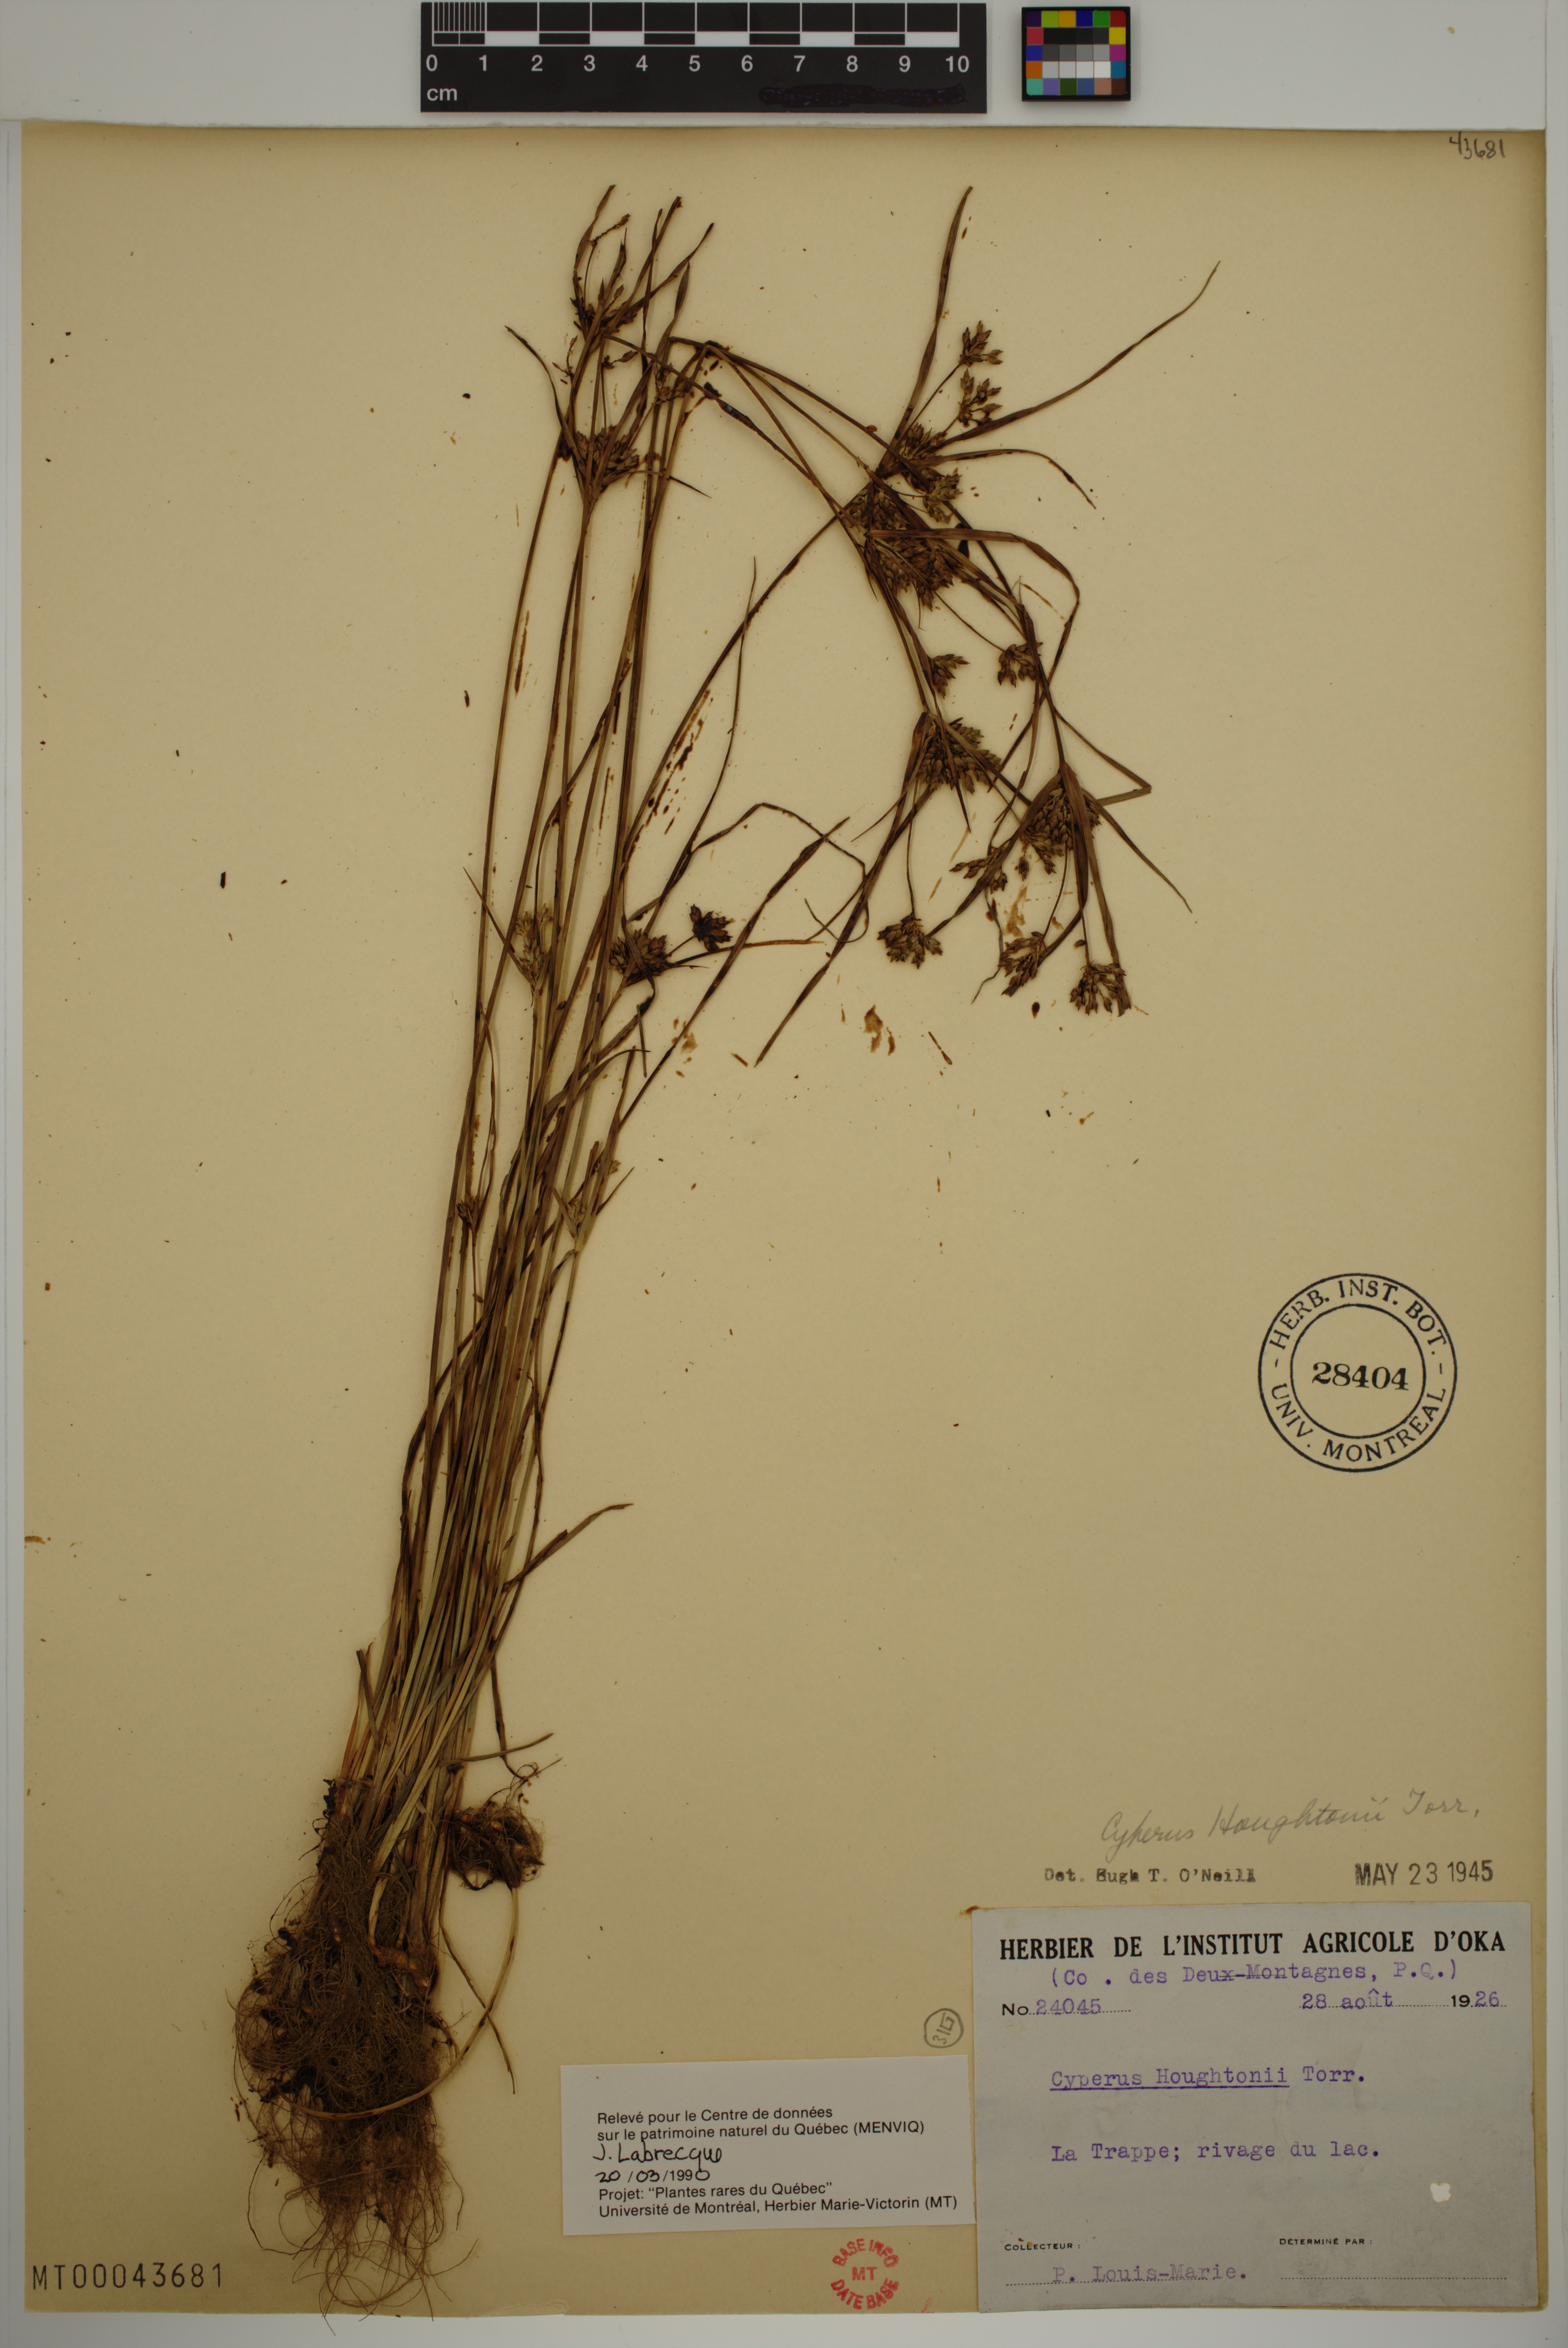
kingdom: Plantae
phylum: Tracheophyta
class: Liliopsida
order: Poales
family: Cyperaceae
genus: Cyperus
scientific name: Cyperus houghtonii
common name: Houghton's cyperus
